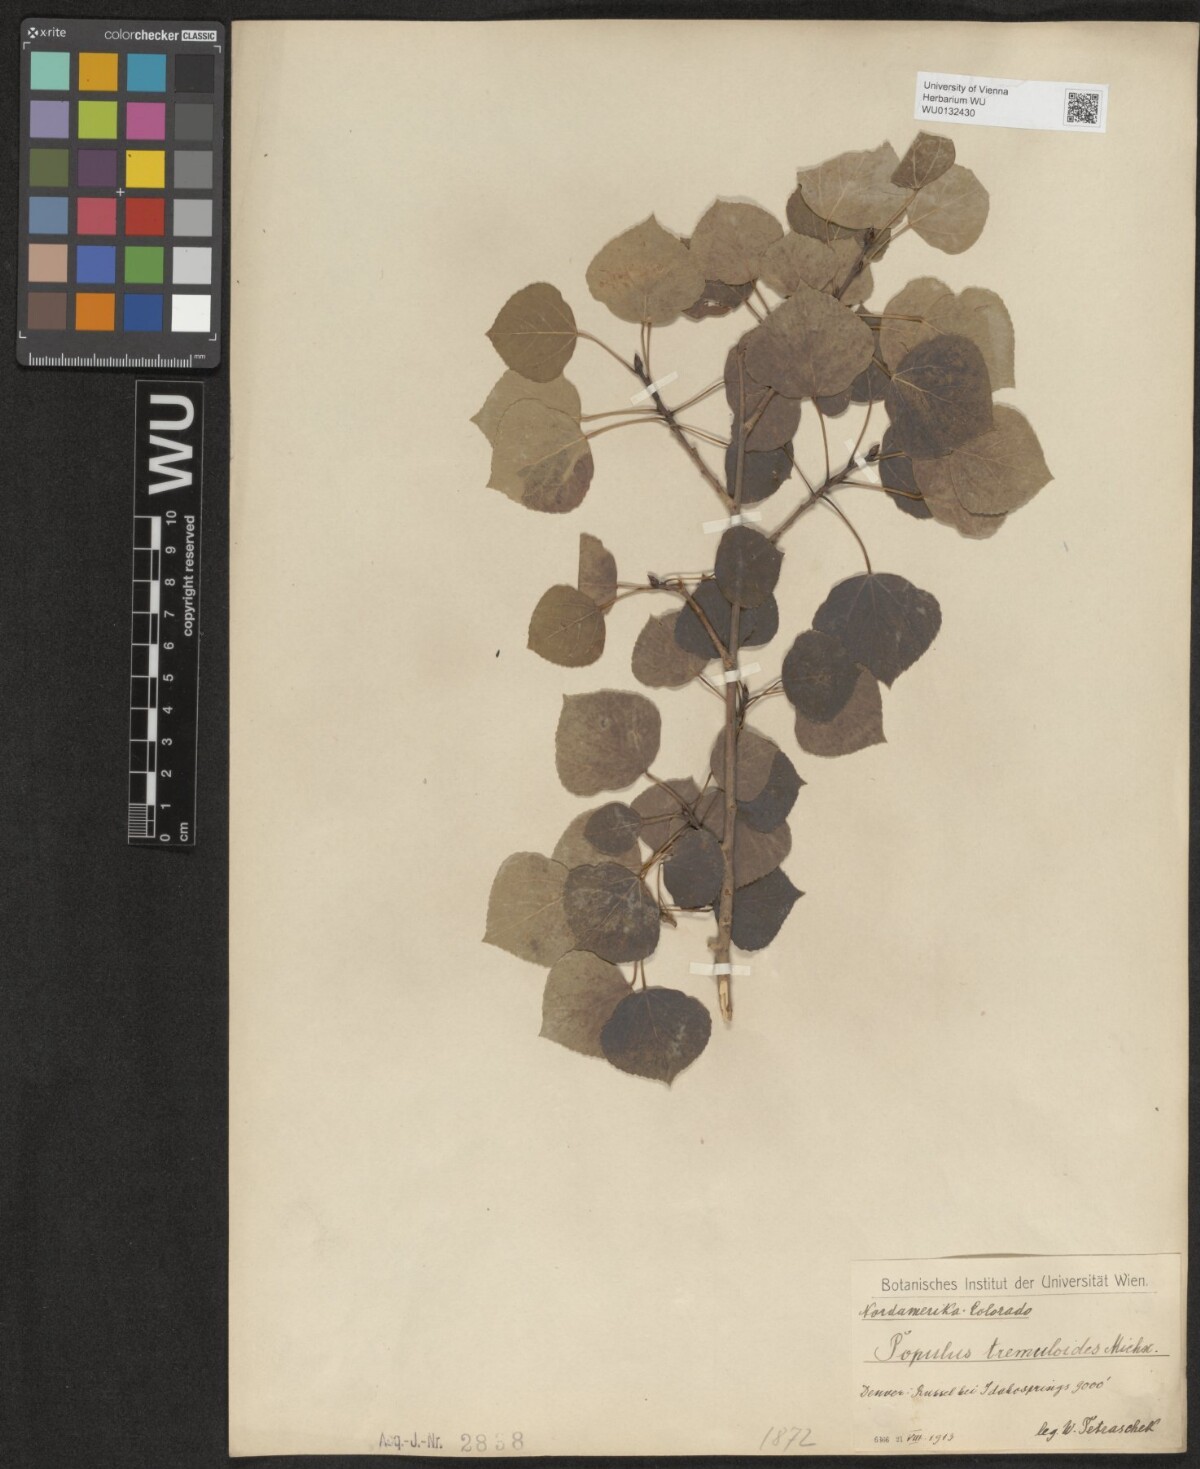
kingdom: Plantae
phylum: Tracheophyta
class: Magnoliopsida
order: Malpighiales
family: Salicaceae
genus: Populus
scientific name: Populus tremuloides
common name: Quaking aspen
